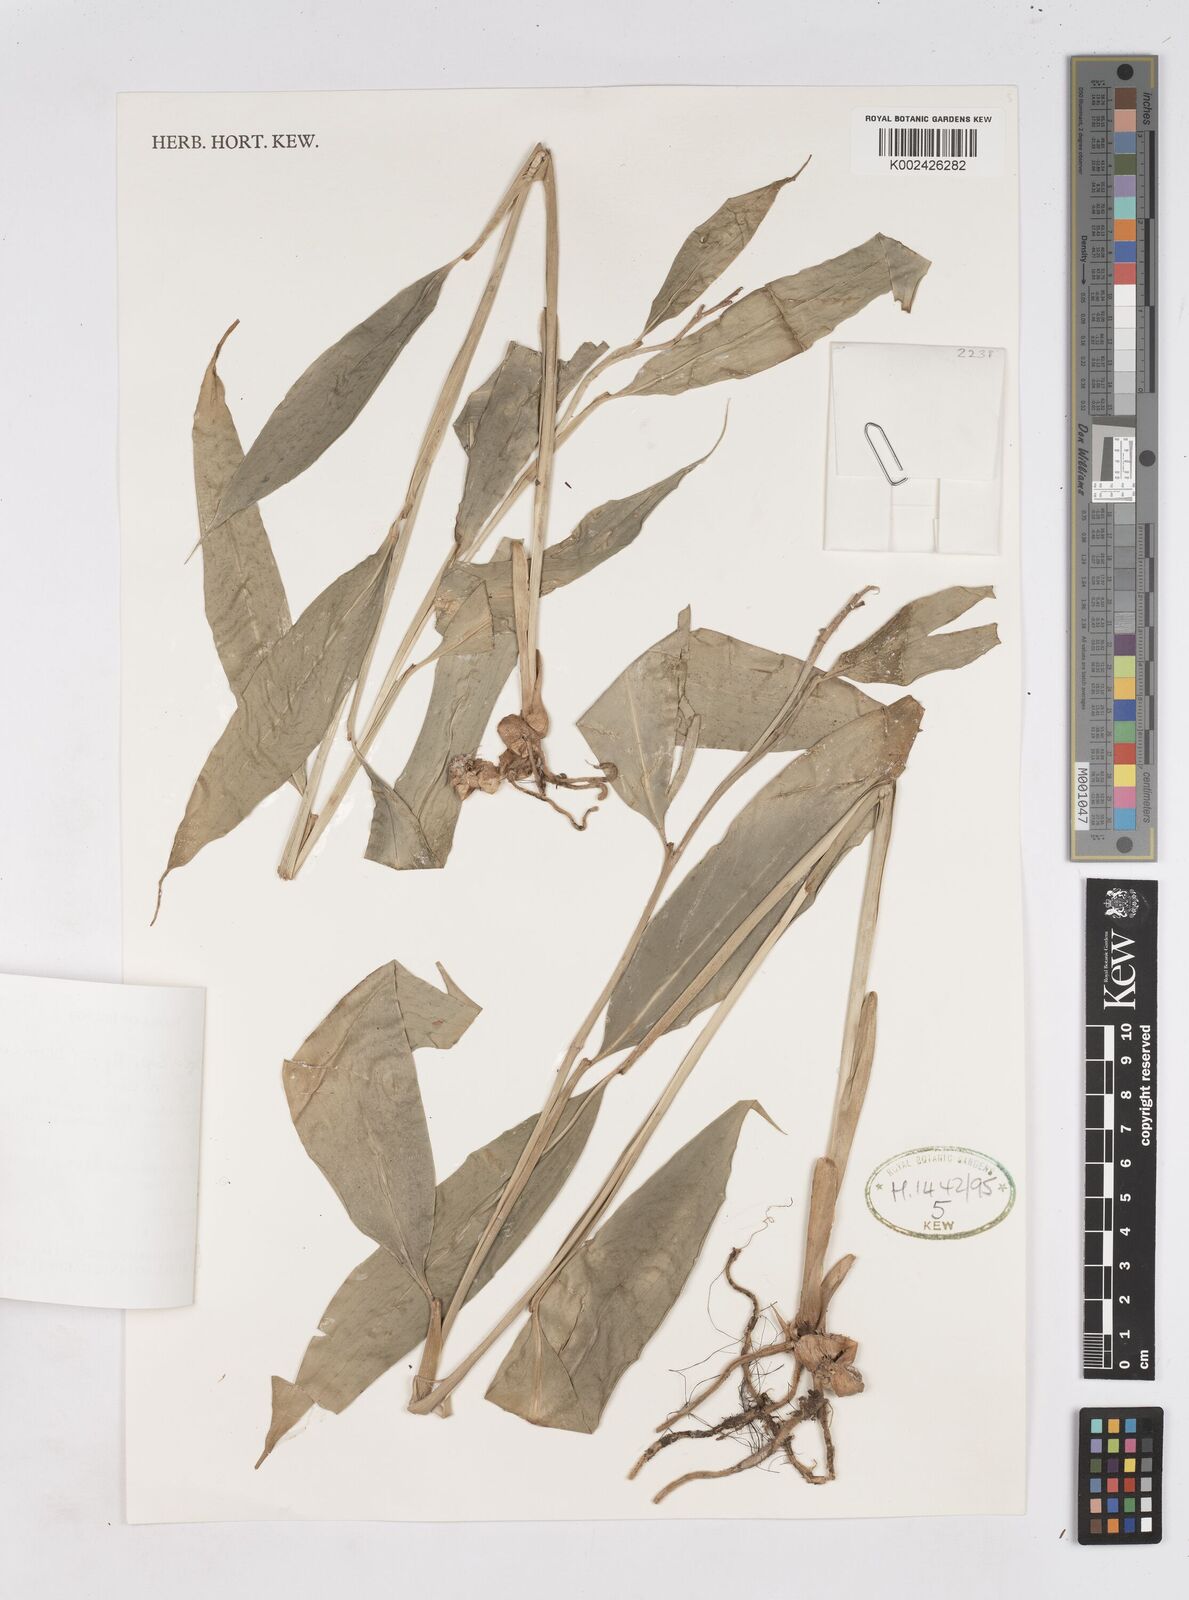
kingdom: Plantae
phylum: Tracheophyta
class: Liliopsida
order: Zingiberales
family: Zingiberaceae
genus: Burbidgea
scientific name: Burbidgea nitida
